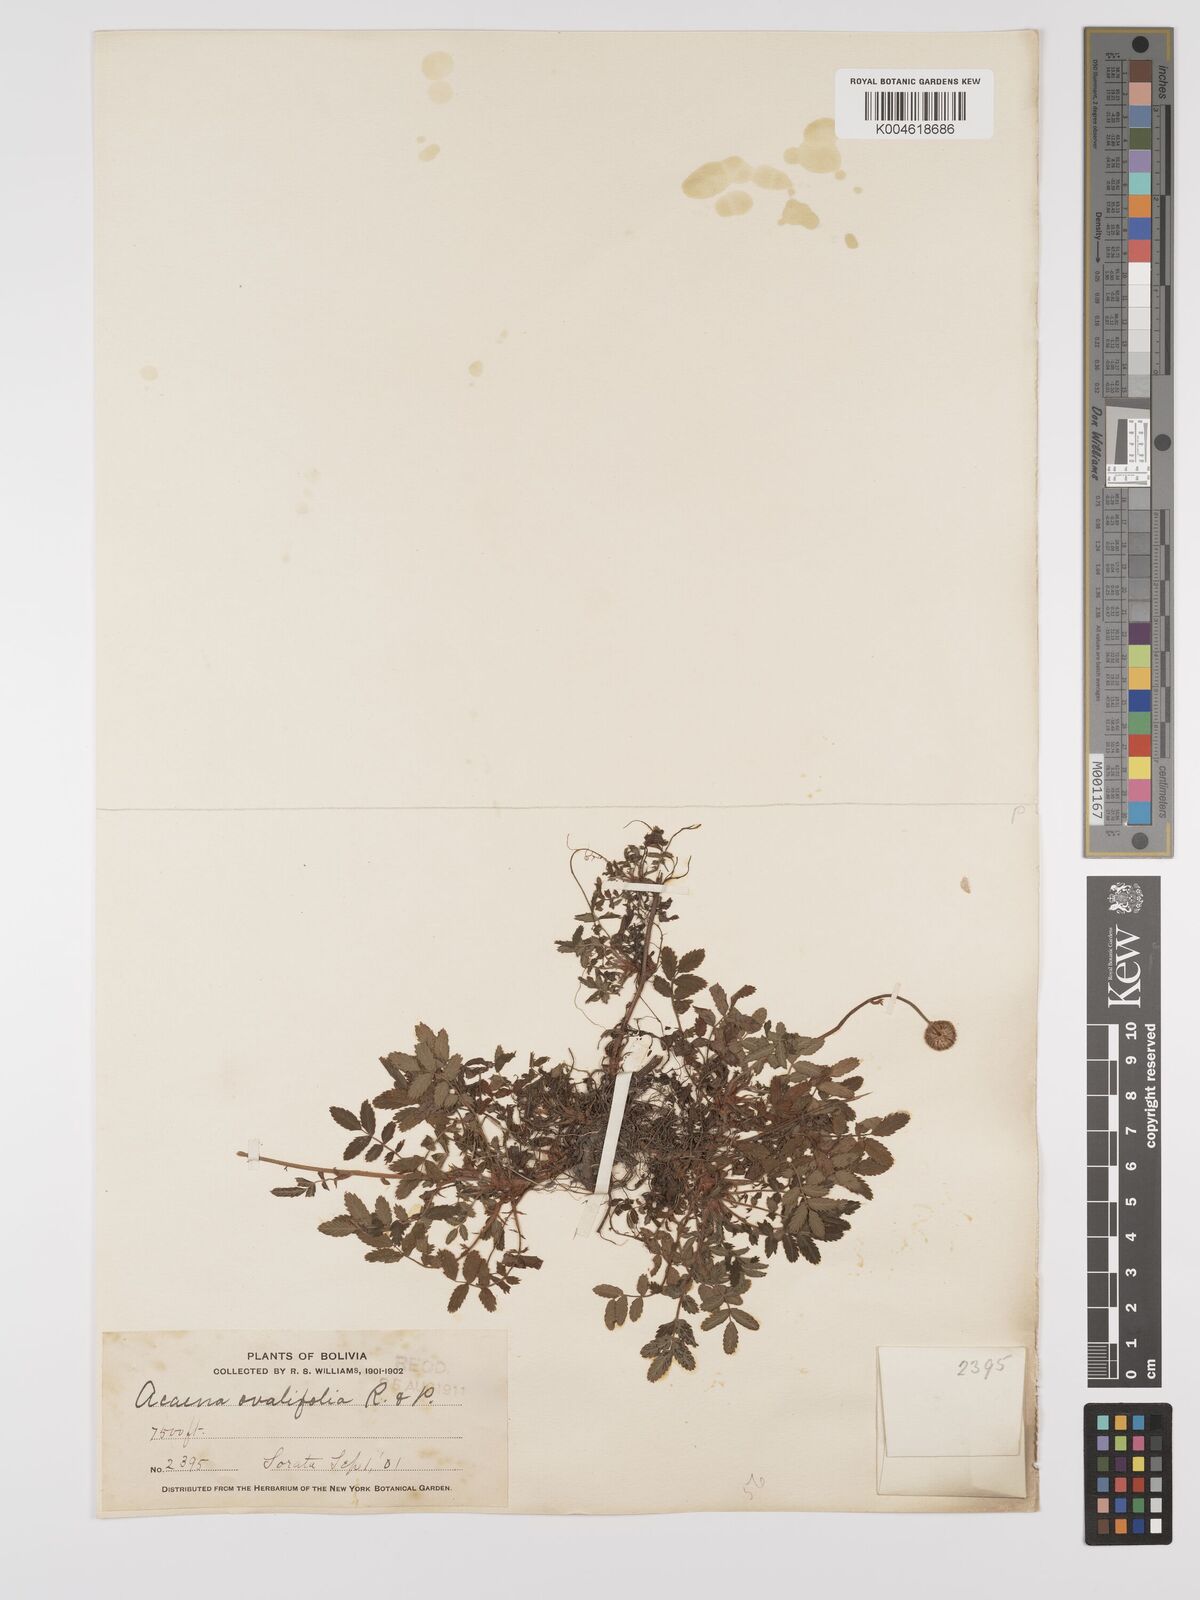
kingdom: Plantae
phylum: Tracheophyta
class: Magnoliopsida
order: Rosales
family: Rosaceae
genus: Acaena
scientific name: Acaena ovalifolia
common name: Two-spined acaena
